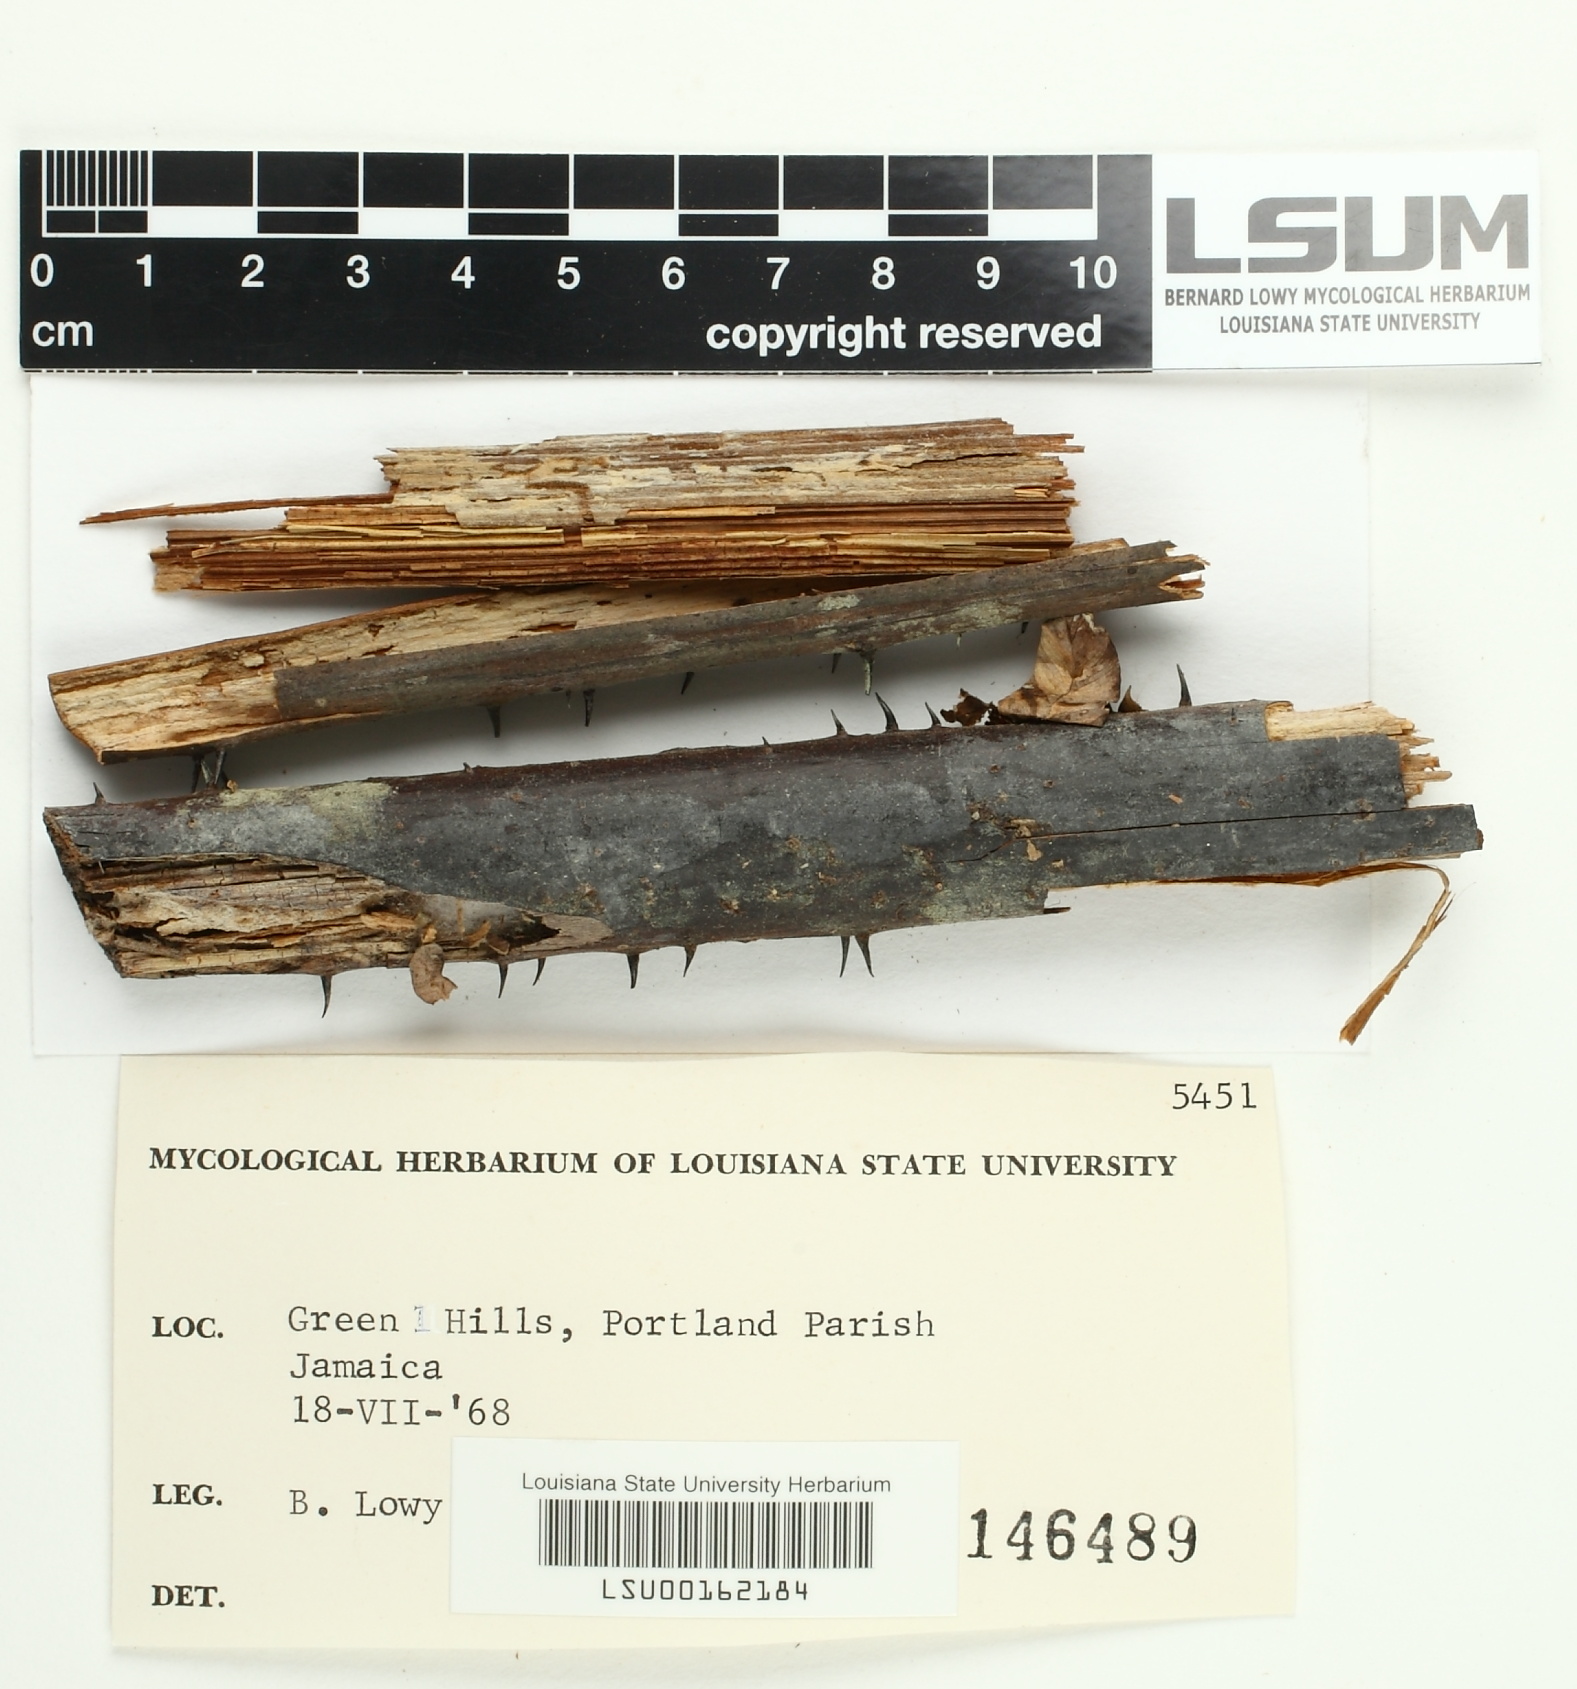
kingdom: Fungi
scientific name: Fungi
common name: Fungi
